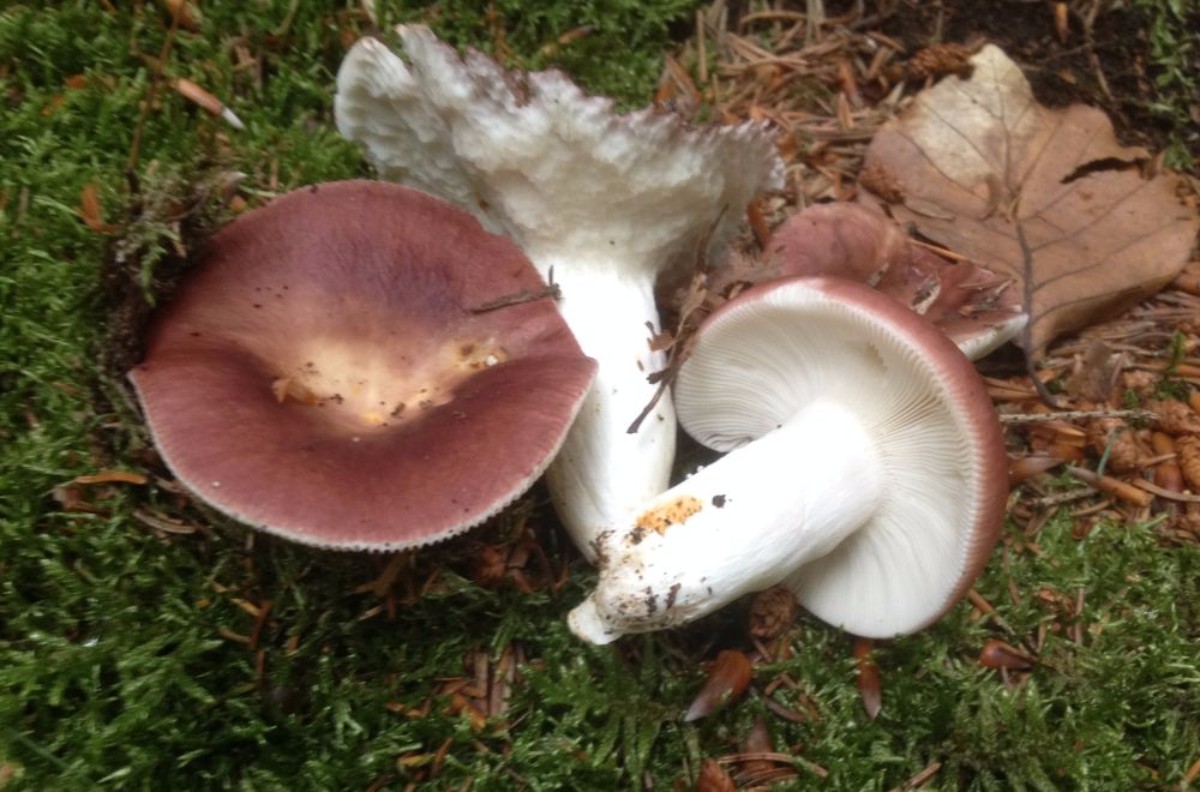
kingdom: Fungi
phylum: Basidiomycota
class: Agaricomycetes
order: Russulales
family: Russulaceae
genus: Russula
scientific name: Russula vesca
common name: spiselig skørhat
